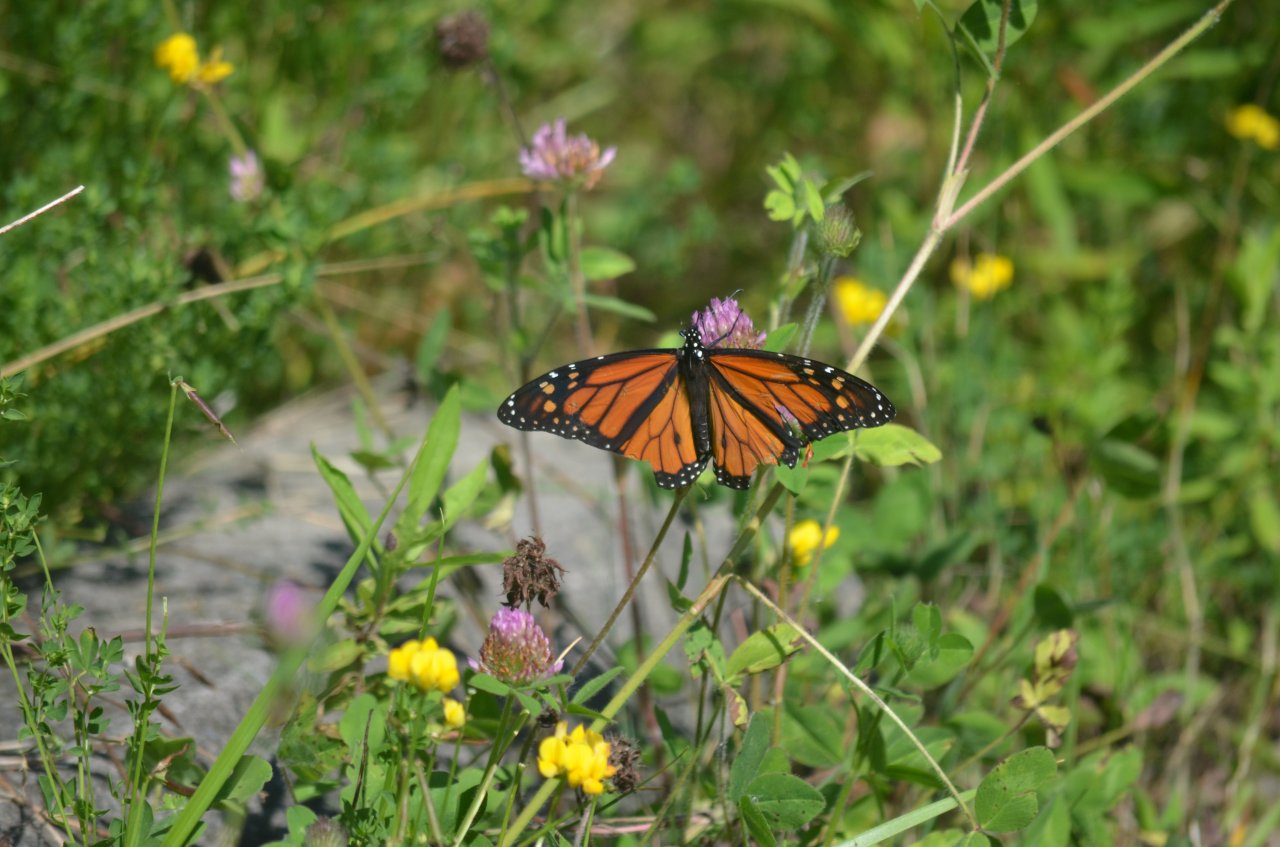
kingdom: Animalia
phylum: Arthropoda
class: Insecta
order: Lepidoptera
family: Nymphalidae
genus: Danaus
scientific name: Danaus plexippus
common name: Monarch
